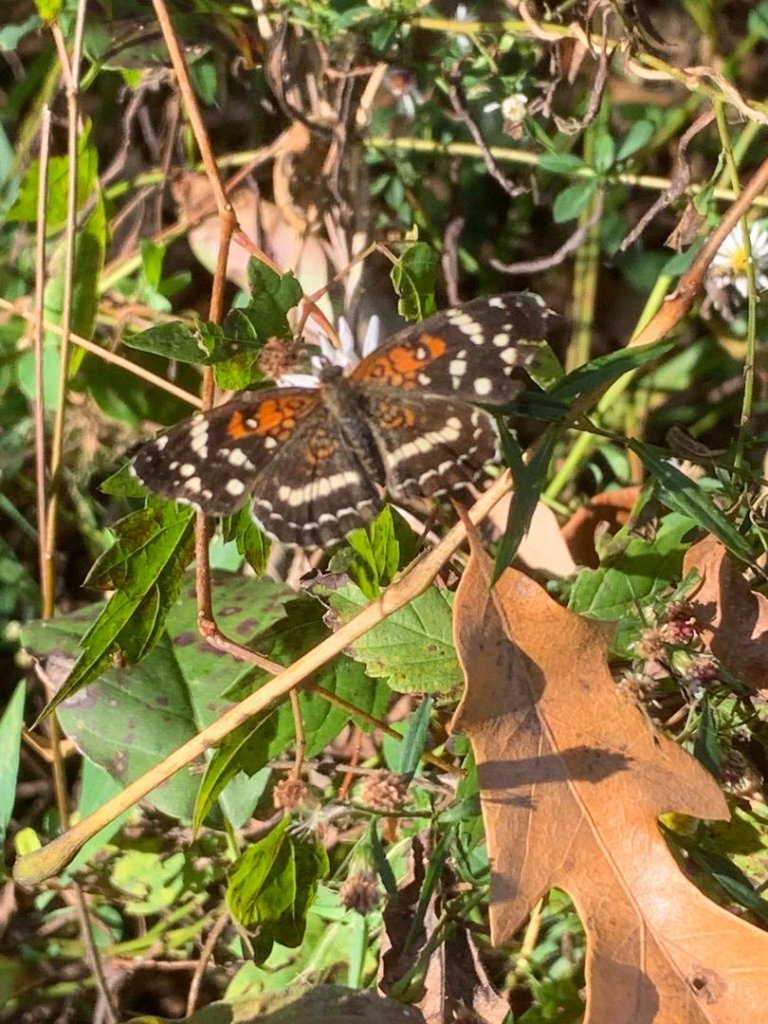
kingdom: Animalia
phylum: Arthropoda
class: Insecta
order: Lepidoptera
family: Nymphalidae
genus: Anthanassa
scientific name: Anthanassa texana
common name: Texan Crescent
